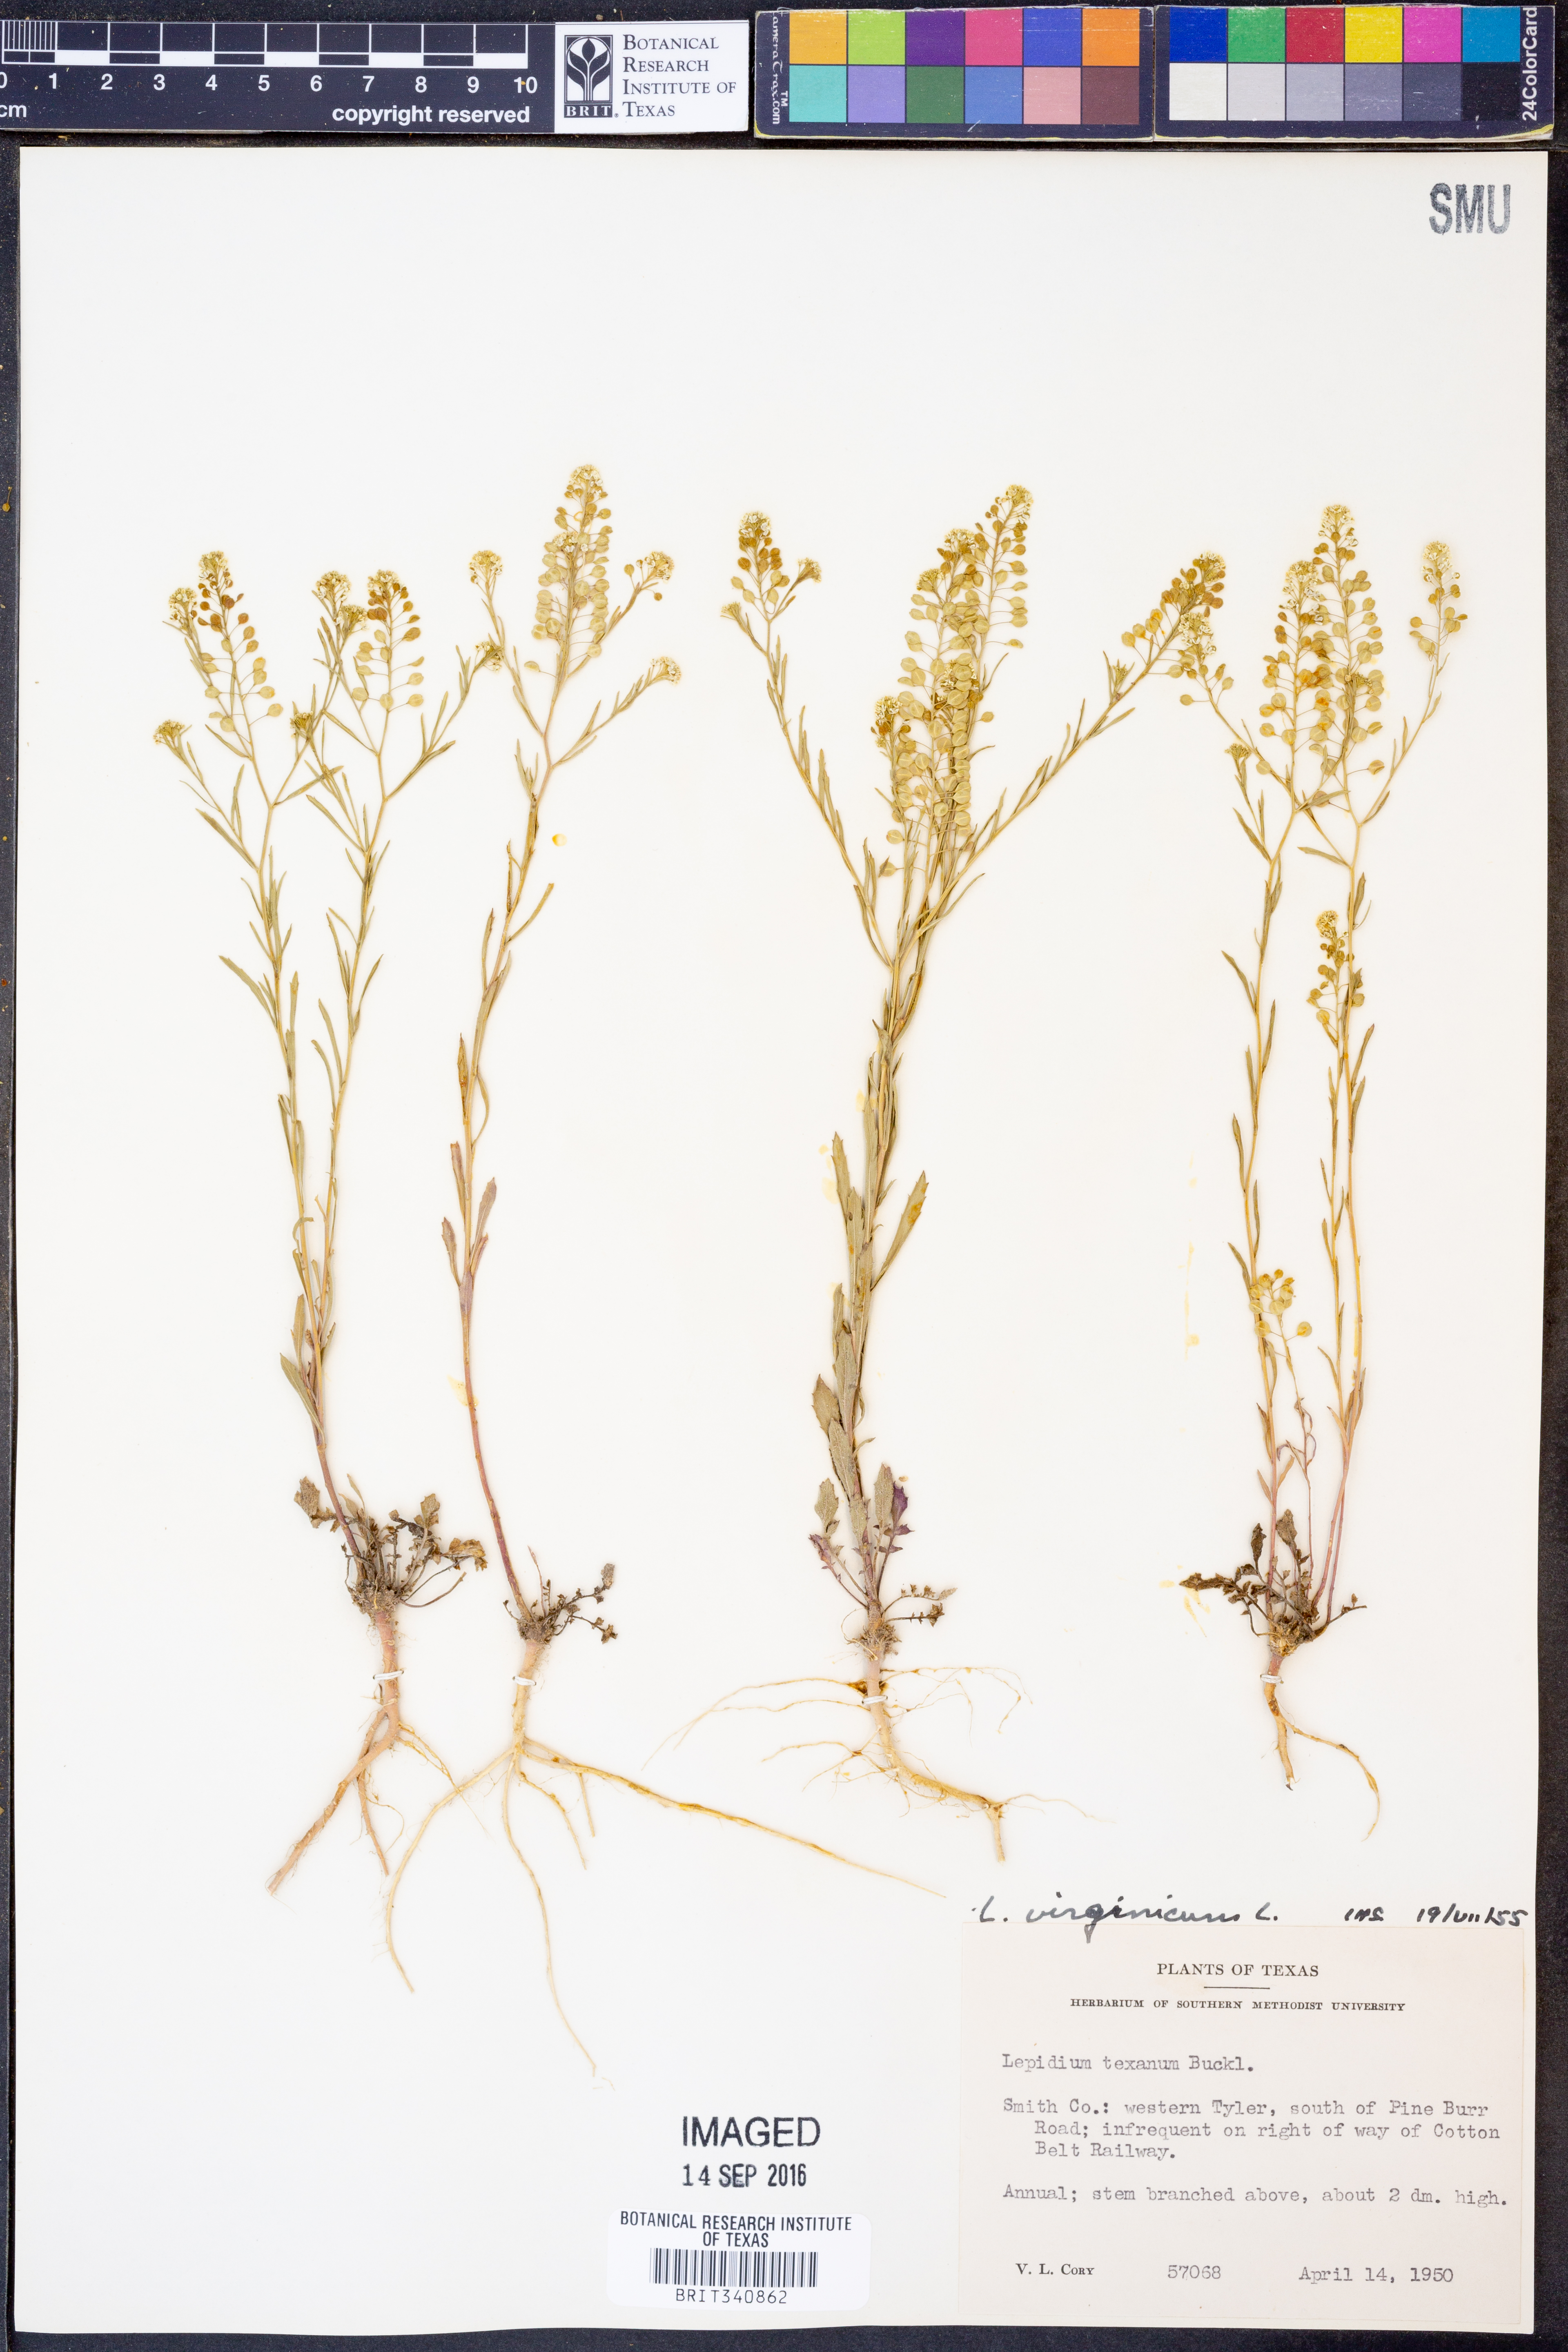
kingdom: Plantae
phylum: Tracheophyta
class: Magnoliopsida
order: Brassicales
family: Brassicaceae
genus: Lepidium
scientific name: Lepidium virginicum
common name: Least pepperwort
